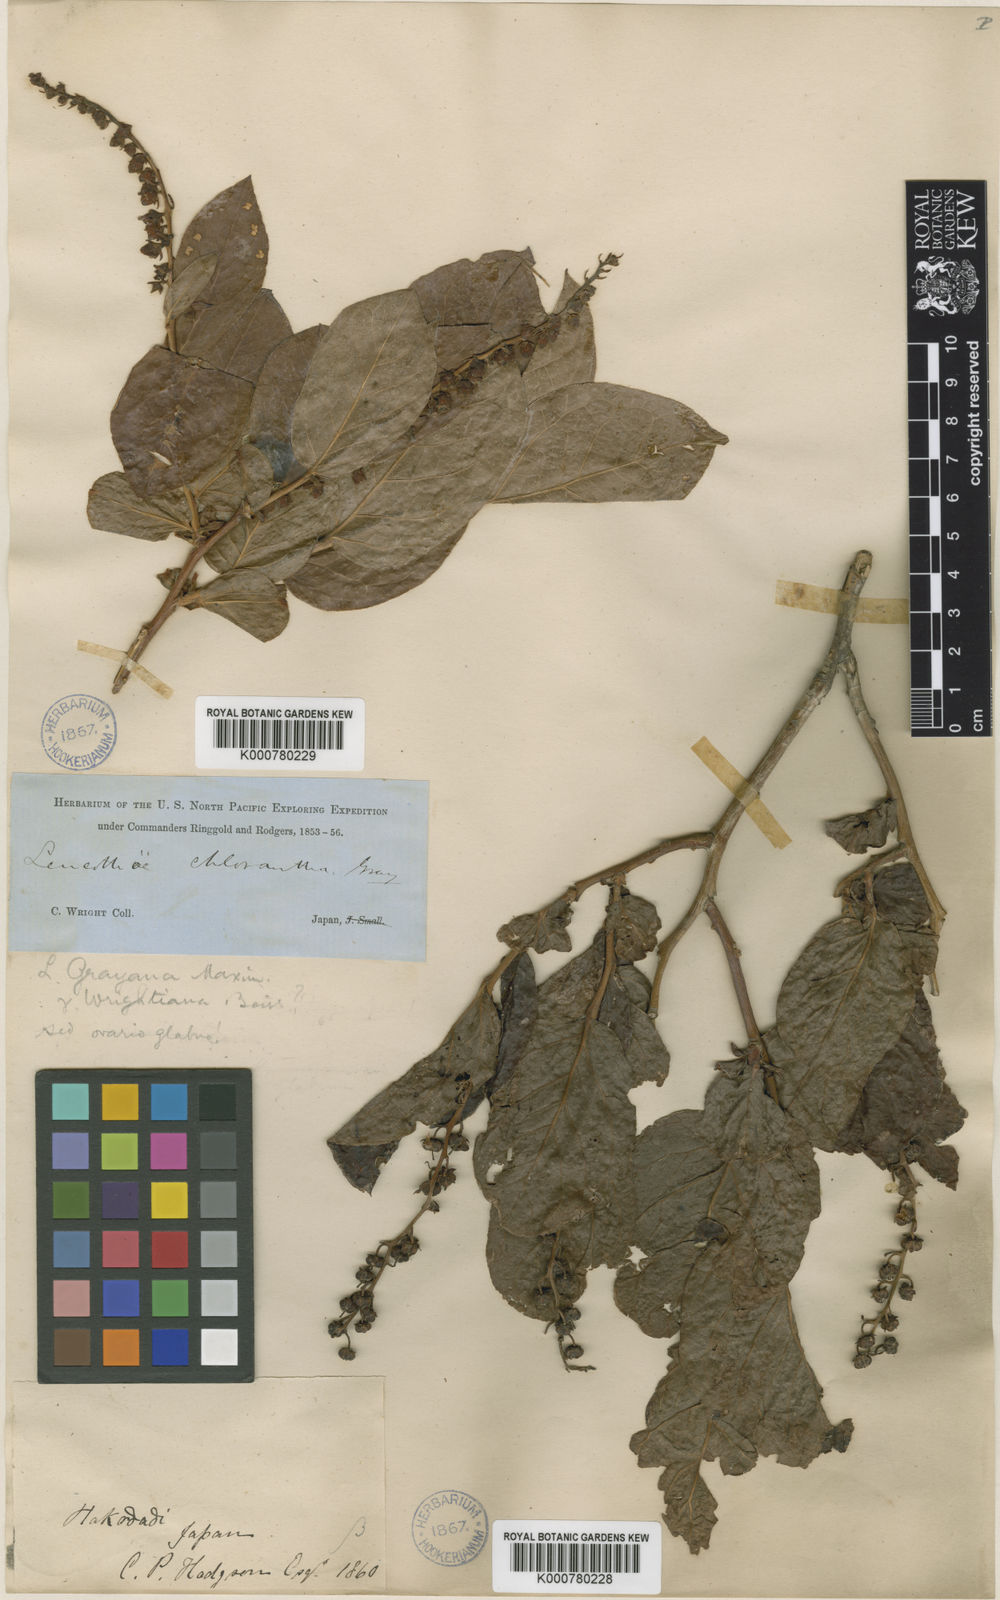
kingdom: Plantae
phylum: Tracheophyta
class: Magnoliopsida
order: Ericales
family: Ericaceae
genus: Leucothoe
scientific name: Leucothoe grayana
